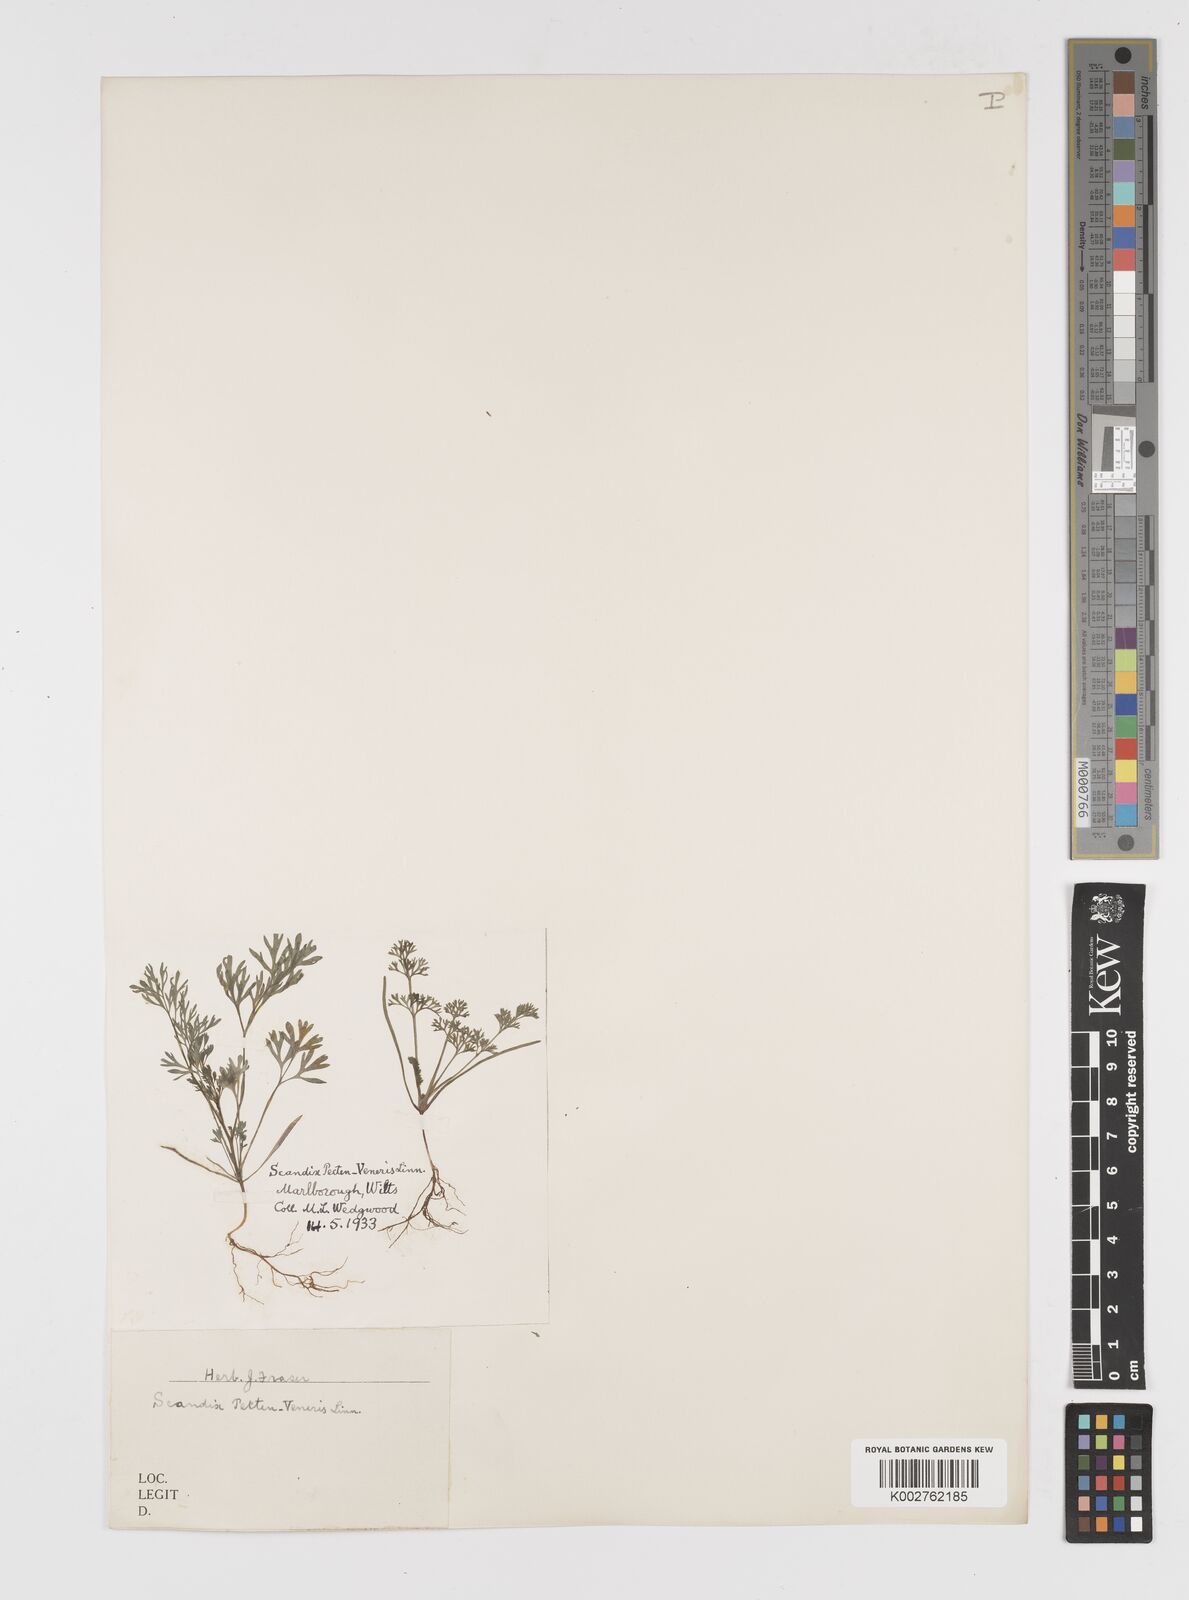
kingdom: Plantae
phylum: Tracheophyta
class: Magnoliopsida
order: Apiales
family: Apiaceae
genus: Scandix
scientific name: Scandix pecten-veneris
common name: Shepherd's-needle
